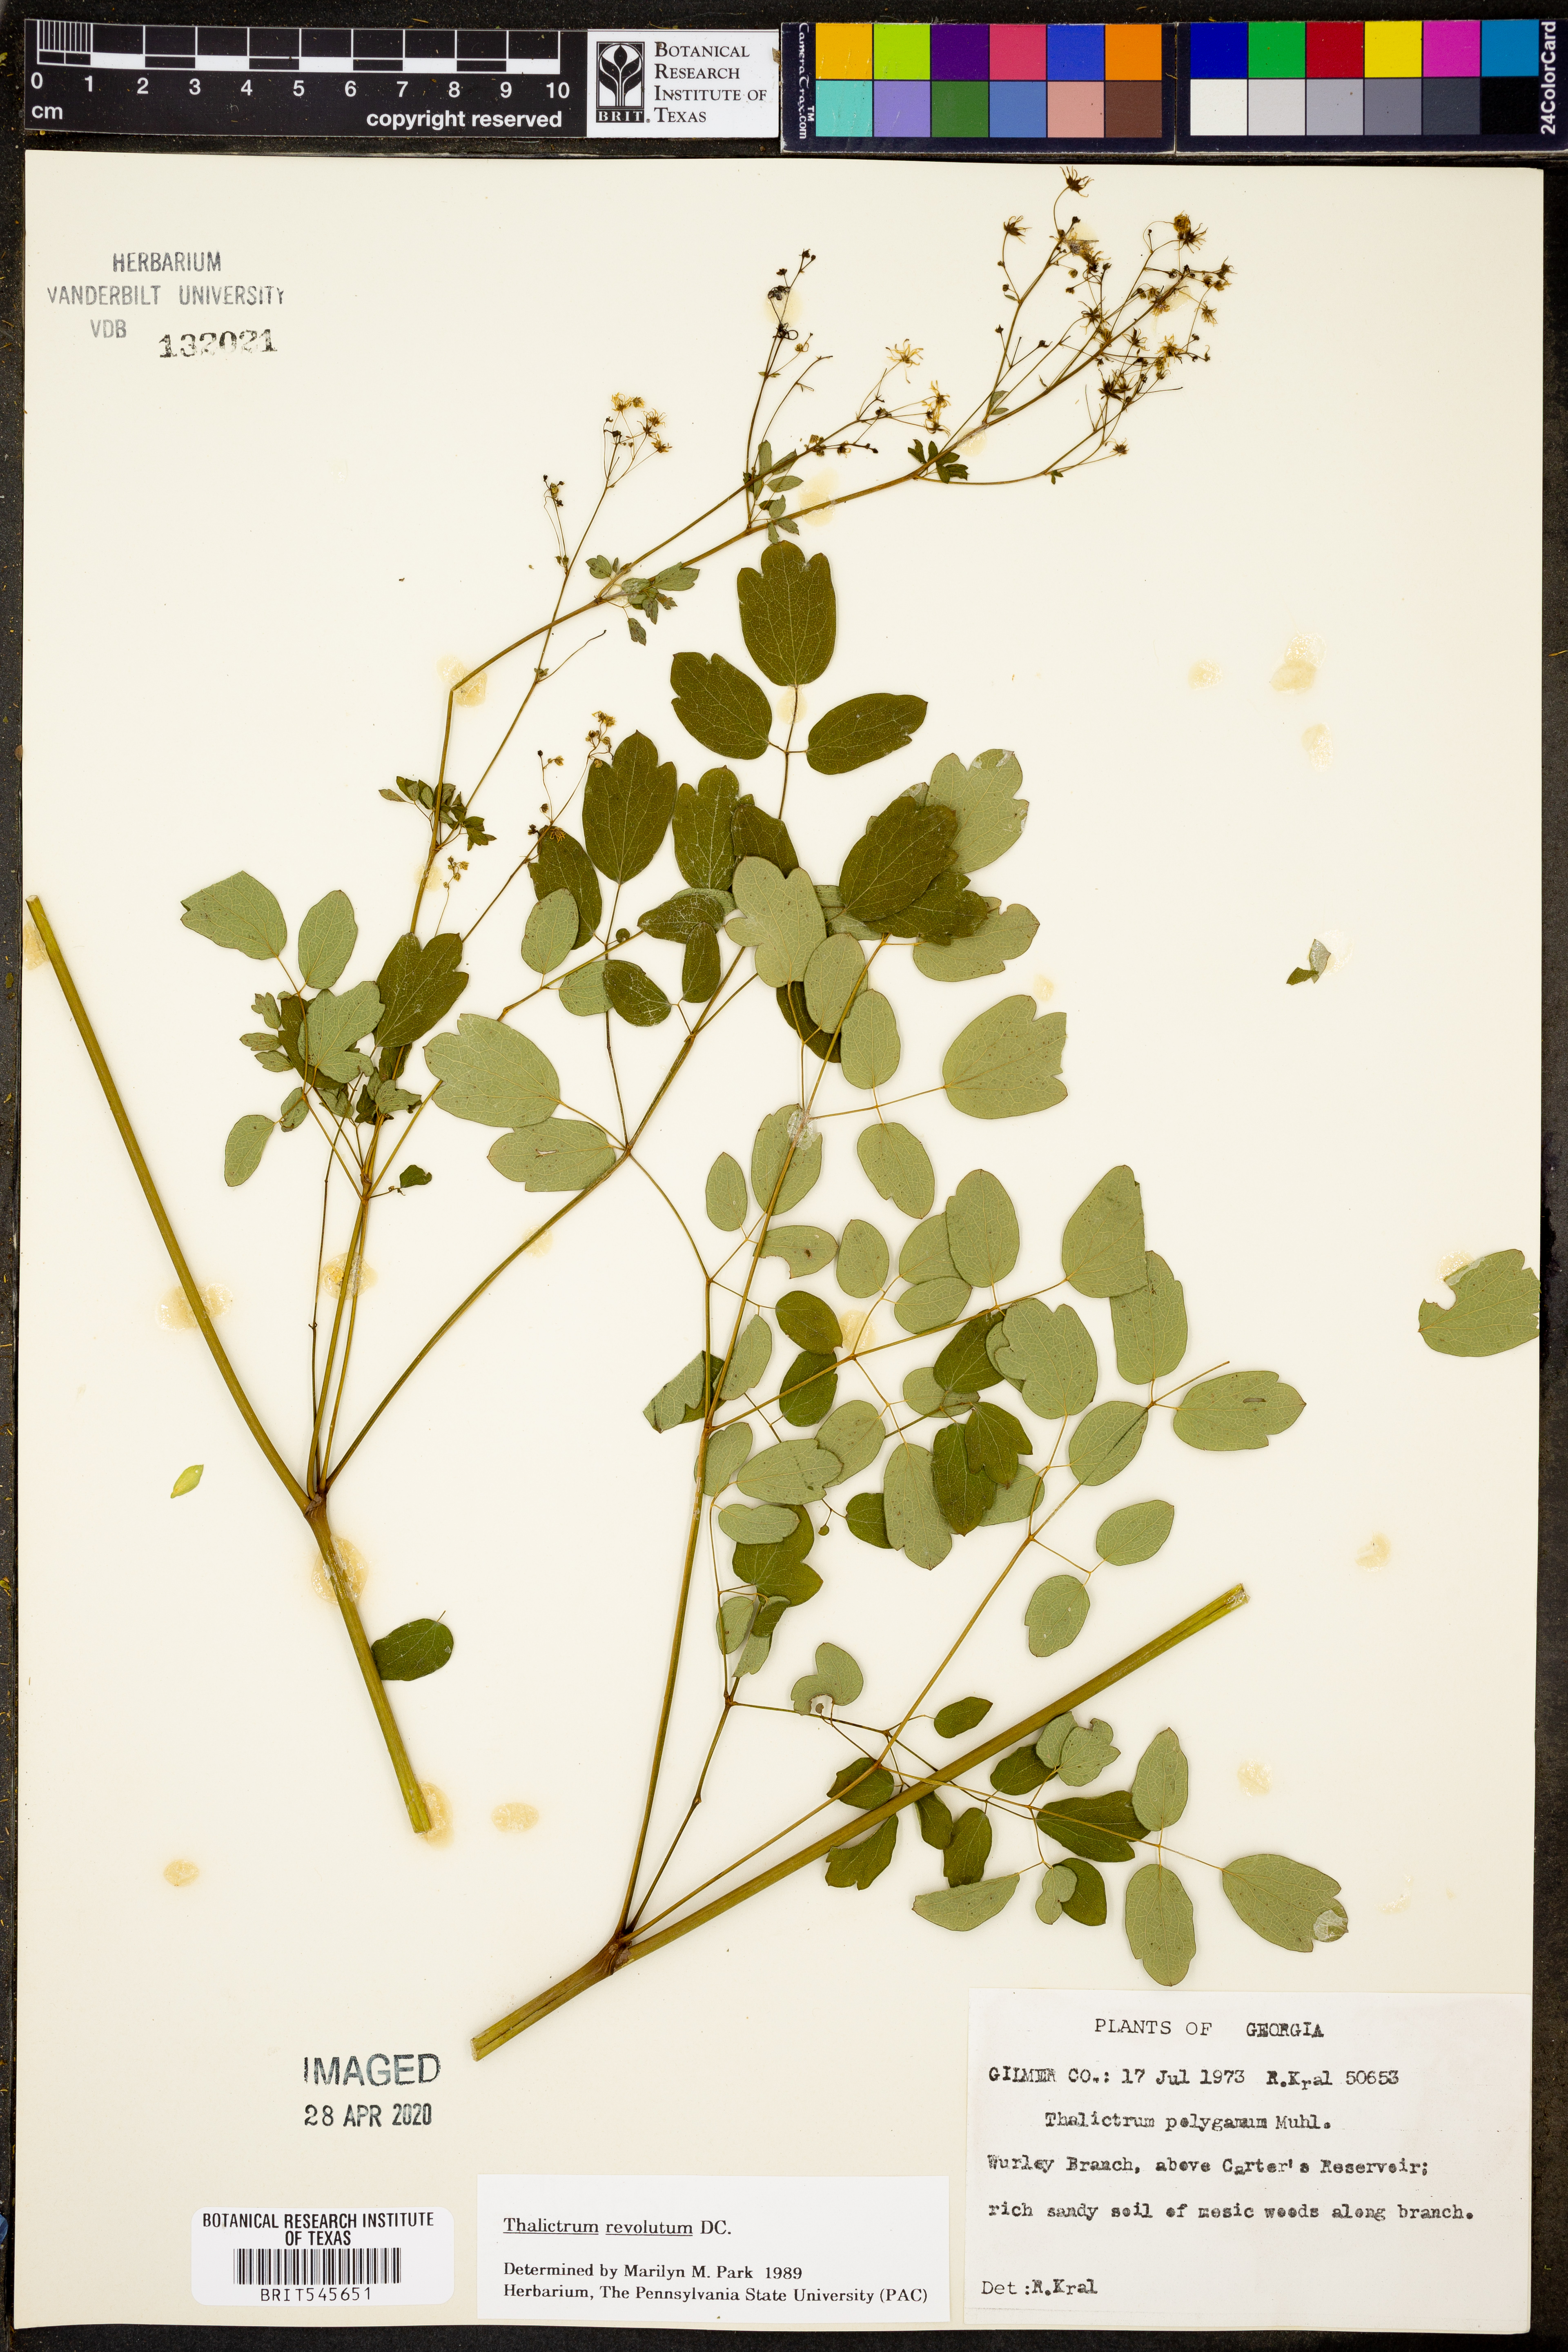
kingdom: Plantae
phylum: Tracheophyta
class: Magnoliopsida
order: Ranunculales
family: Ranunculaceae
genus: Thalictrum
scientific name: Thalictrum revolutum
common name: Waxy meadow-rue
